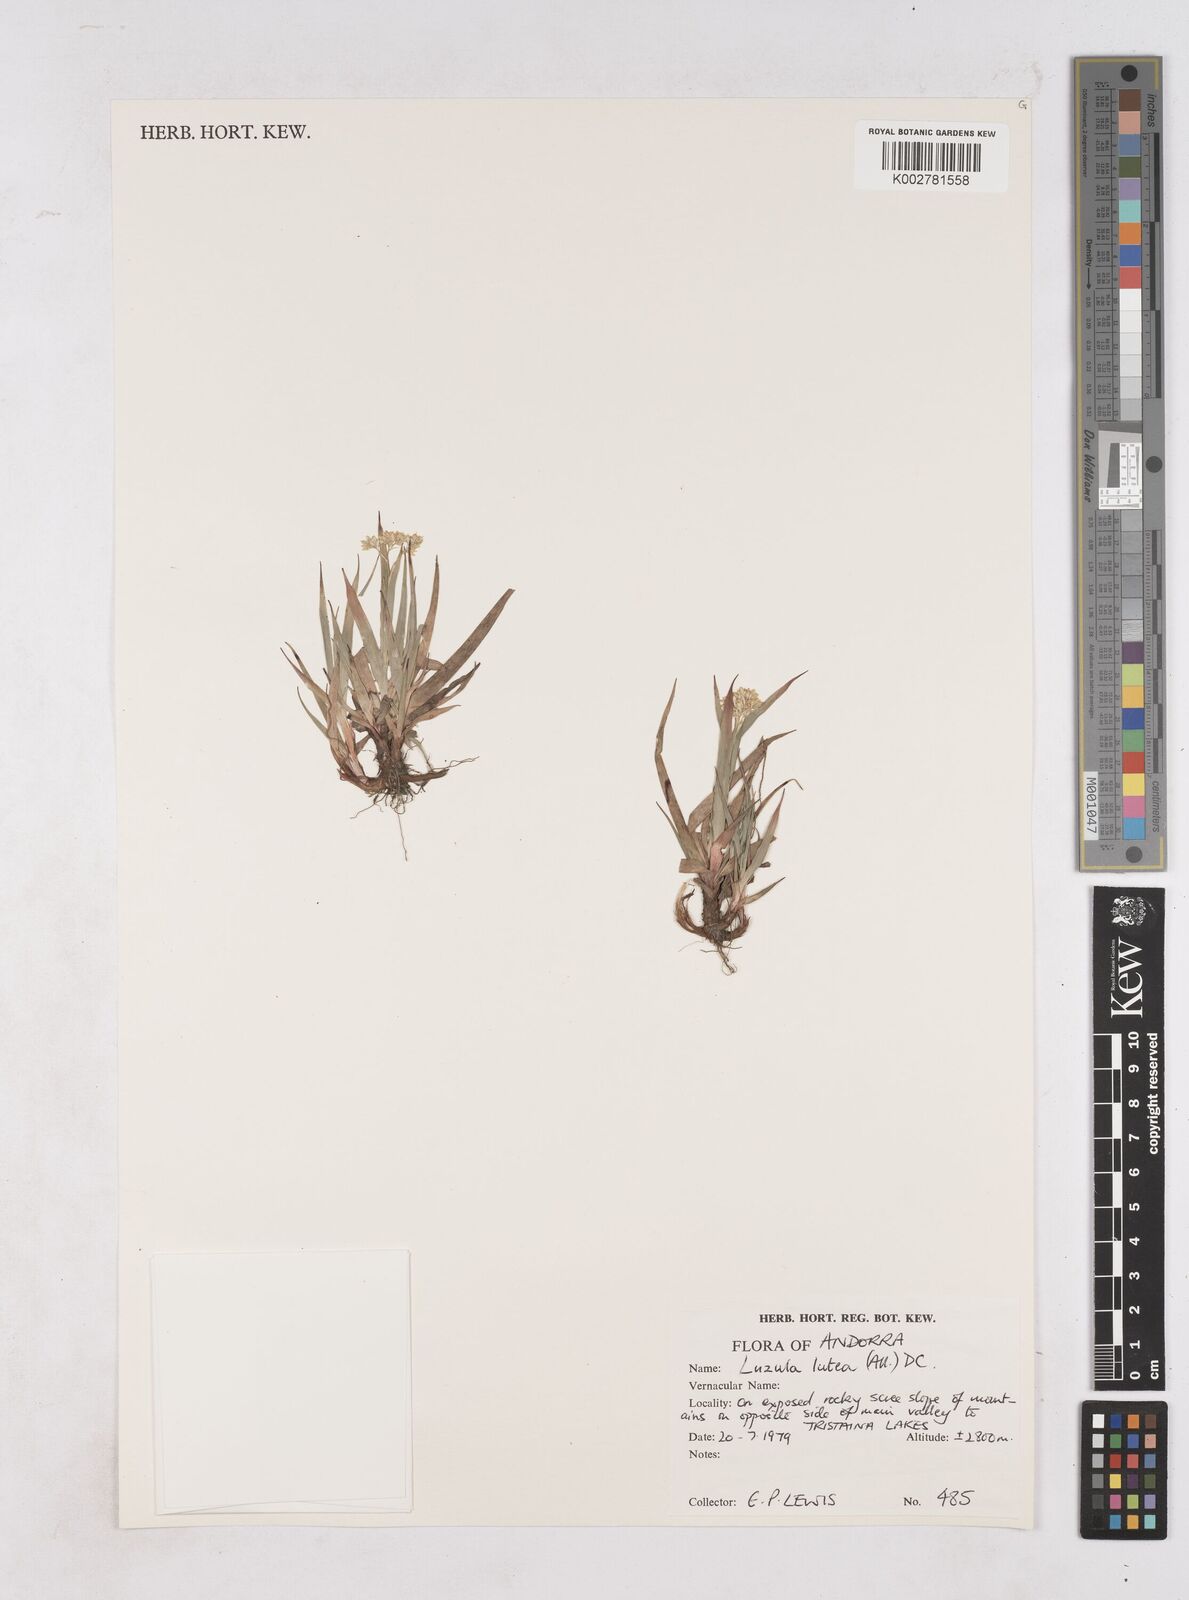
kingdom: Plantae
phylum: Tracheophyta
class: Liliopsida
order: Poales
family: Juncaceae
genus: Luzula
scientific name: Luzula lutea
